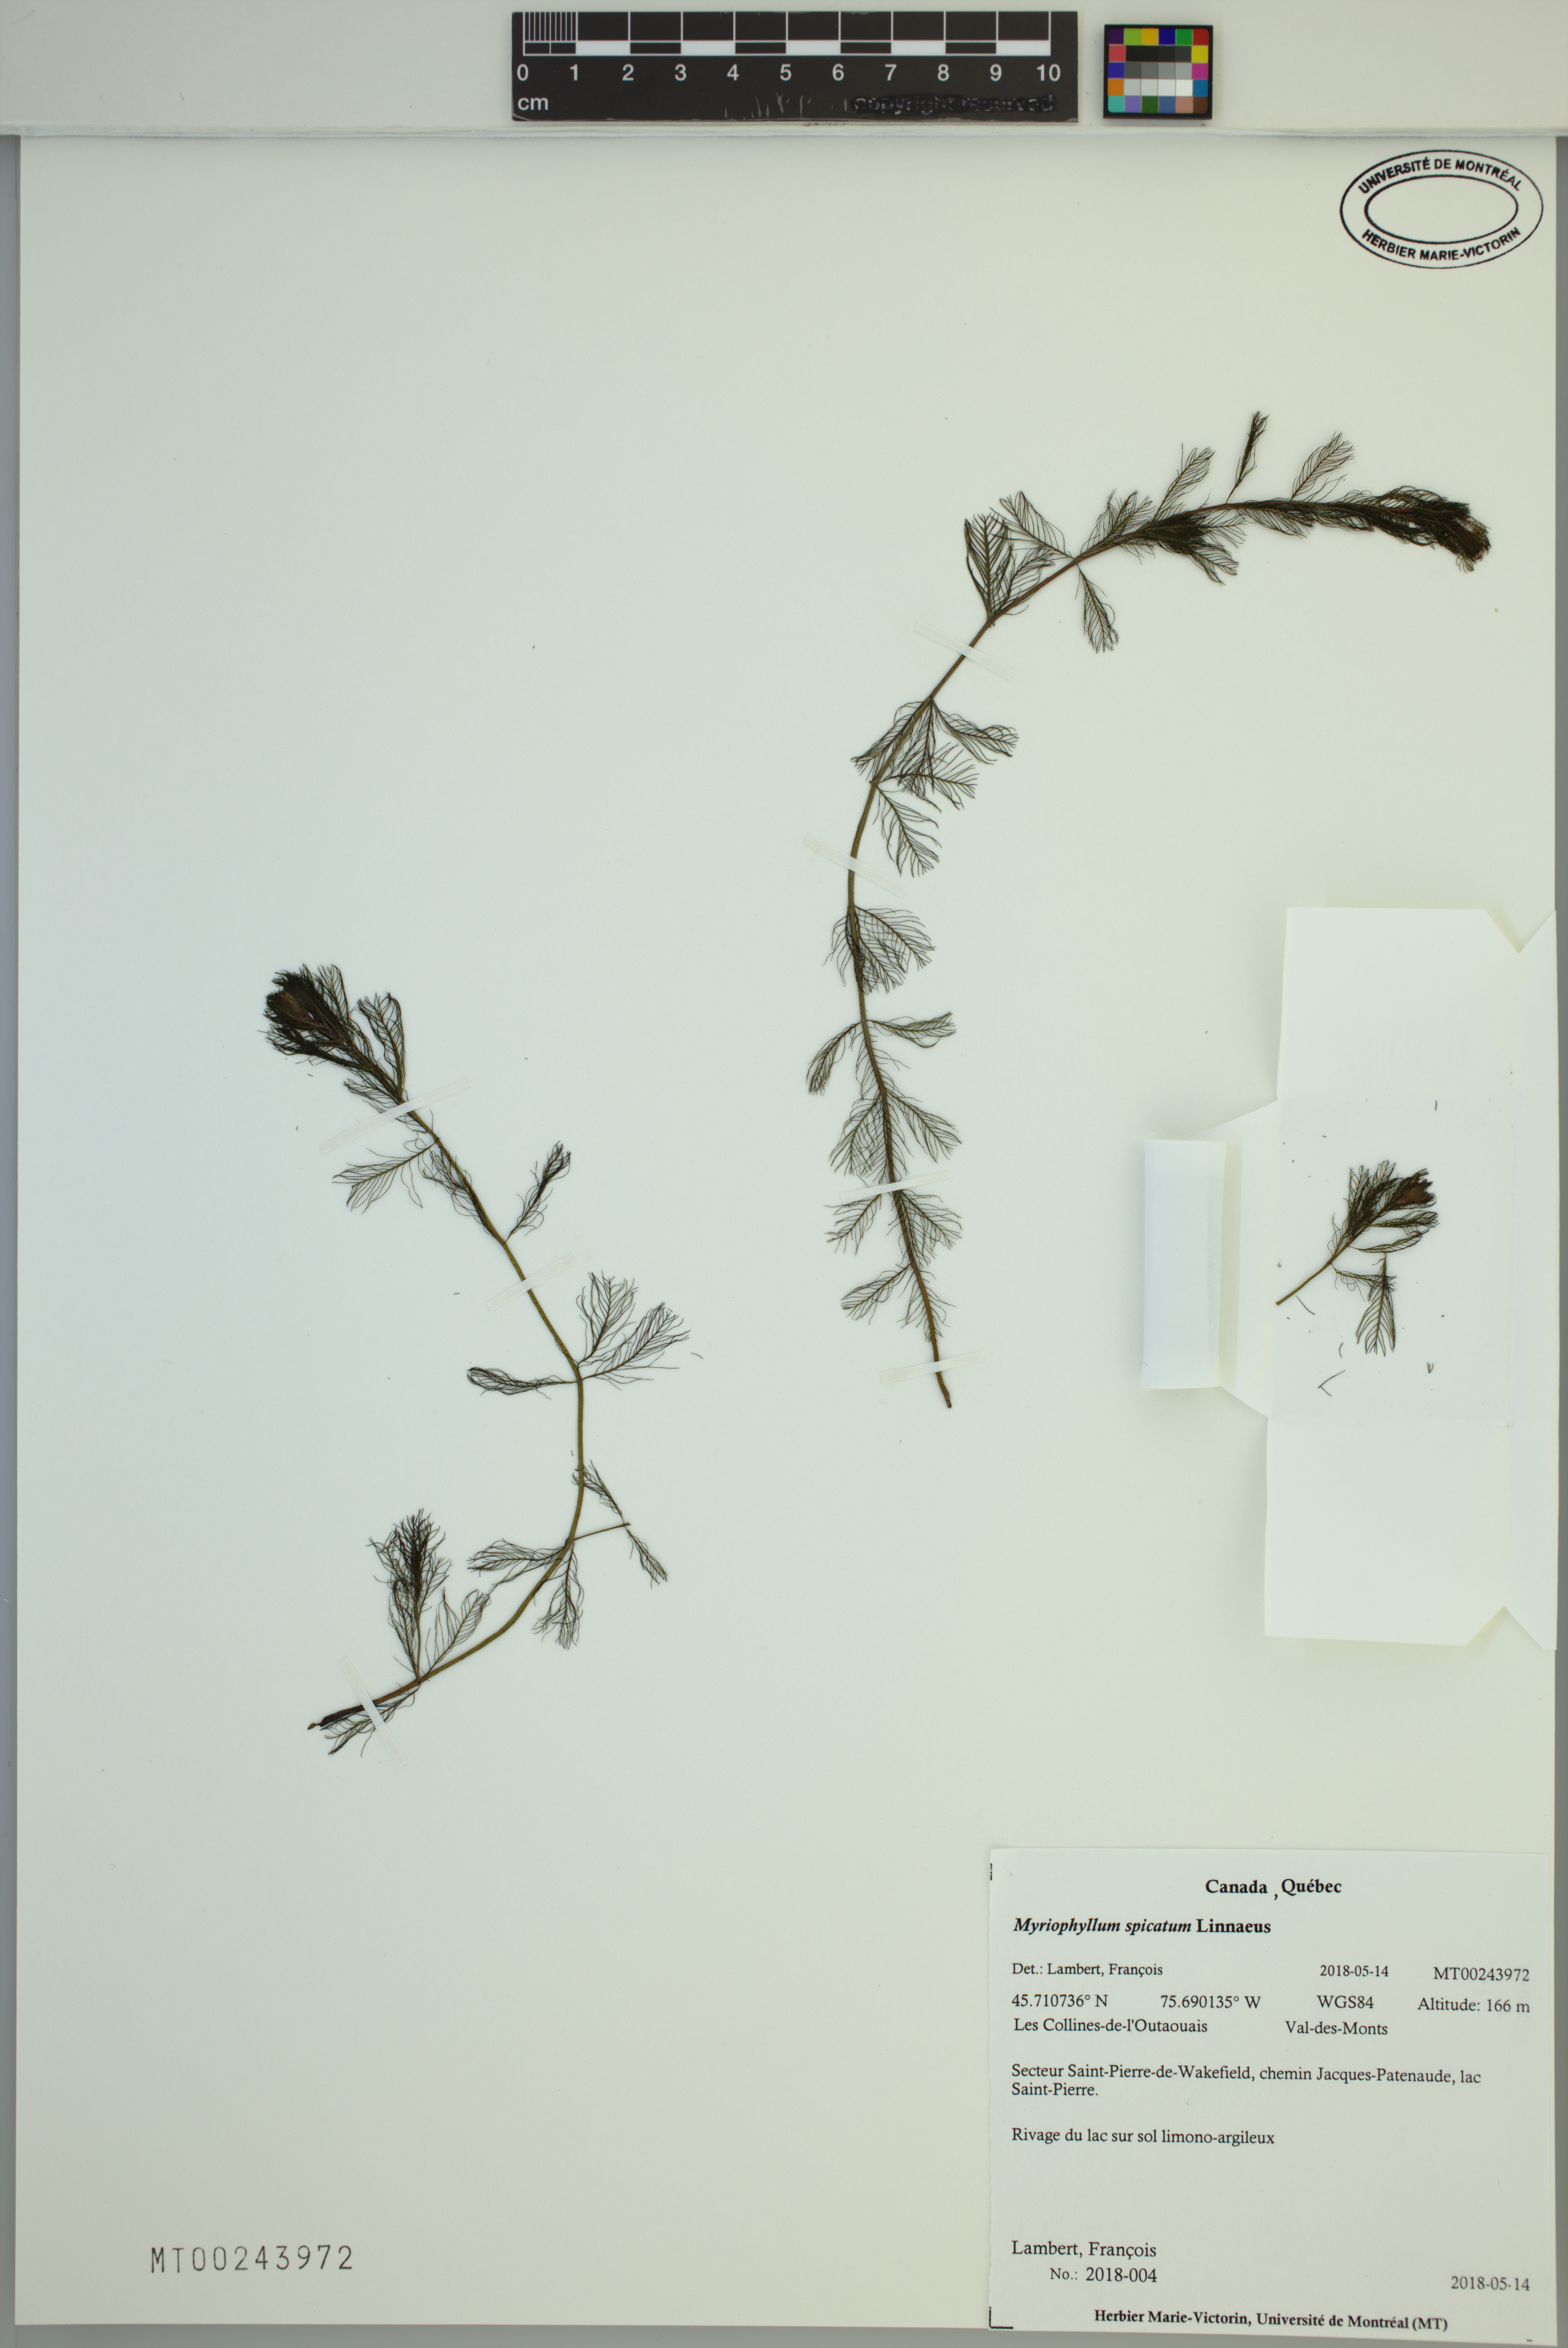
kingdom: Plantae
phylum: Tracheophyta
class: Magnoliopsida
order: Saxifragales
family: Haloragaceae
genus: Myriophyllum
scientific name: Myriophyllum spicatum
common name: Spiked water-milfoil
